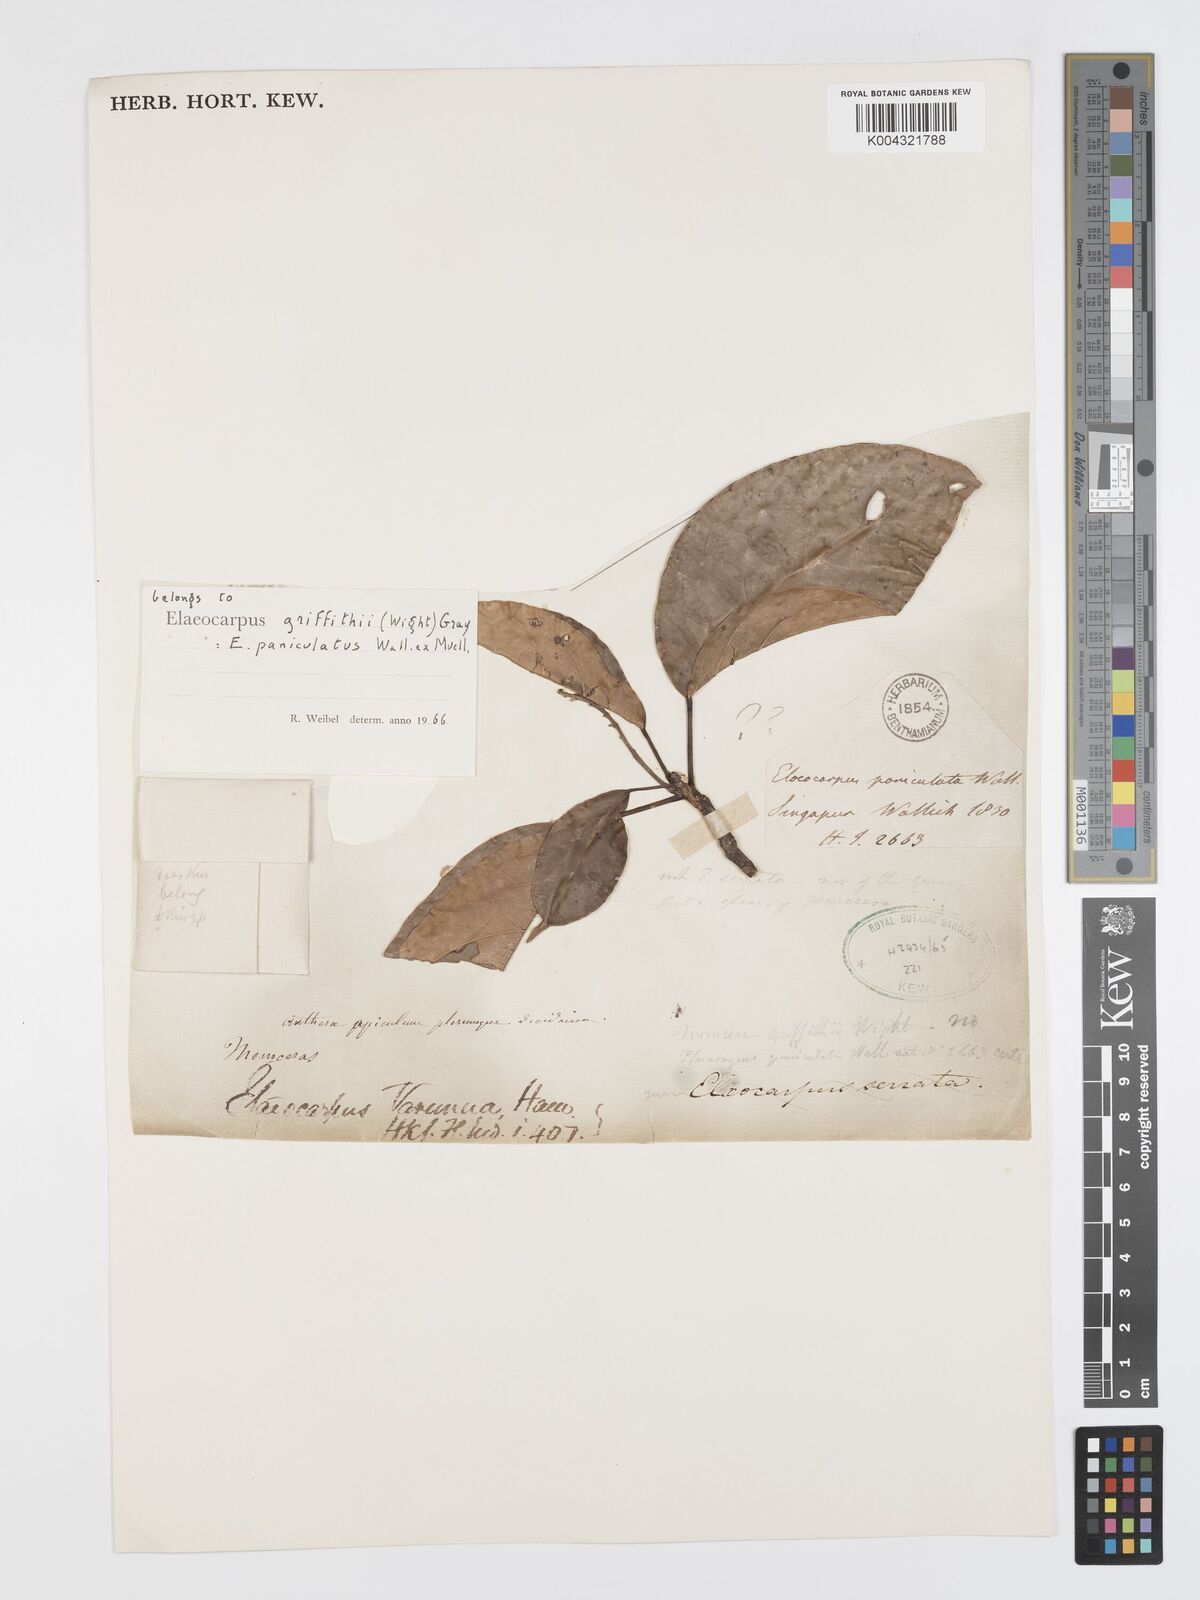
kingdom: Plantae
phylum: Tracheophyta
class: Magnoliopsida
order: Oxalidales
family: Elaeocarpaceae
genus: Elaeocarpus
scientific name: Elaeocarpus griffithii
